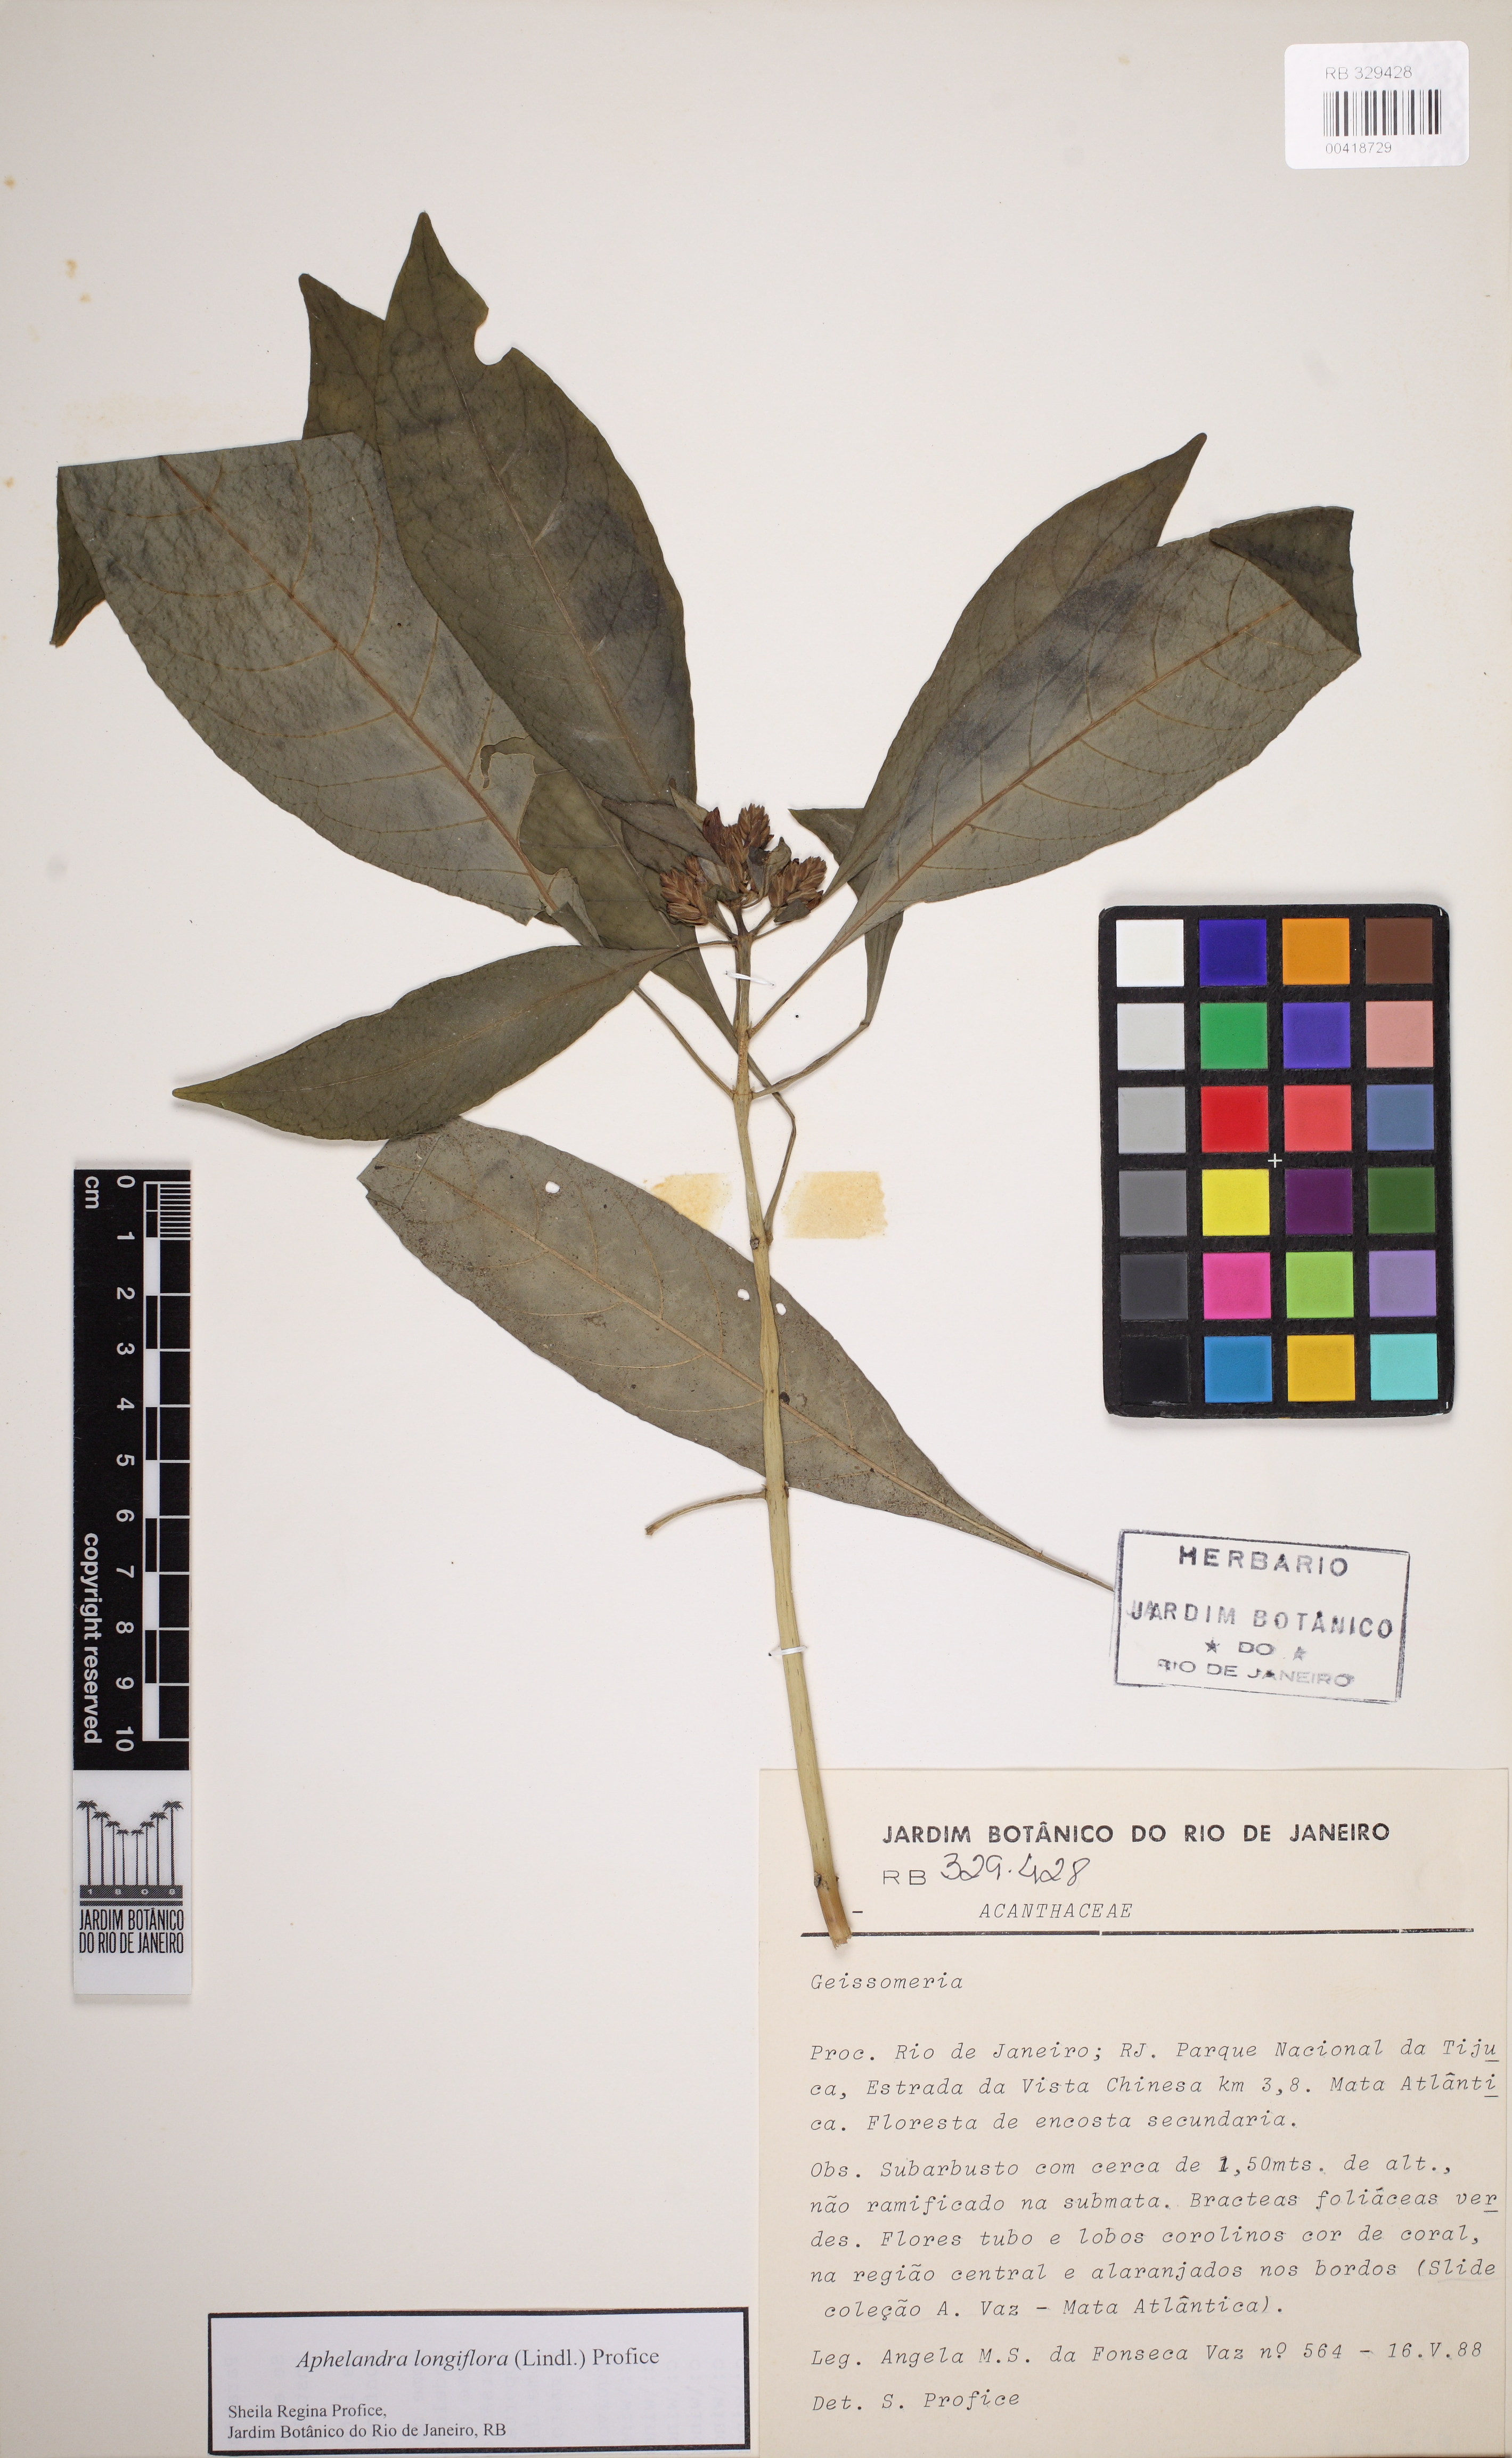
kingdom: Plantae
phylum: Tracheophyta
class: Magnoliopsida
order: Lamiales
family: Acanthaceae
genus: Aphelandra
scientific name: Aphelandra longiflora
